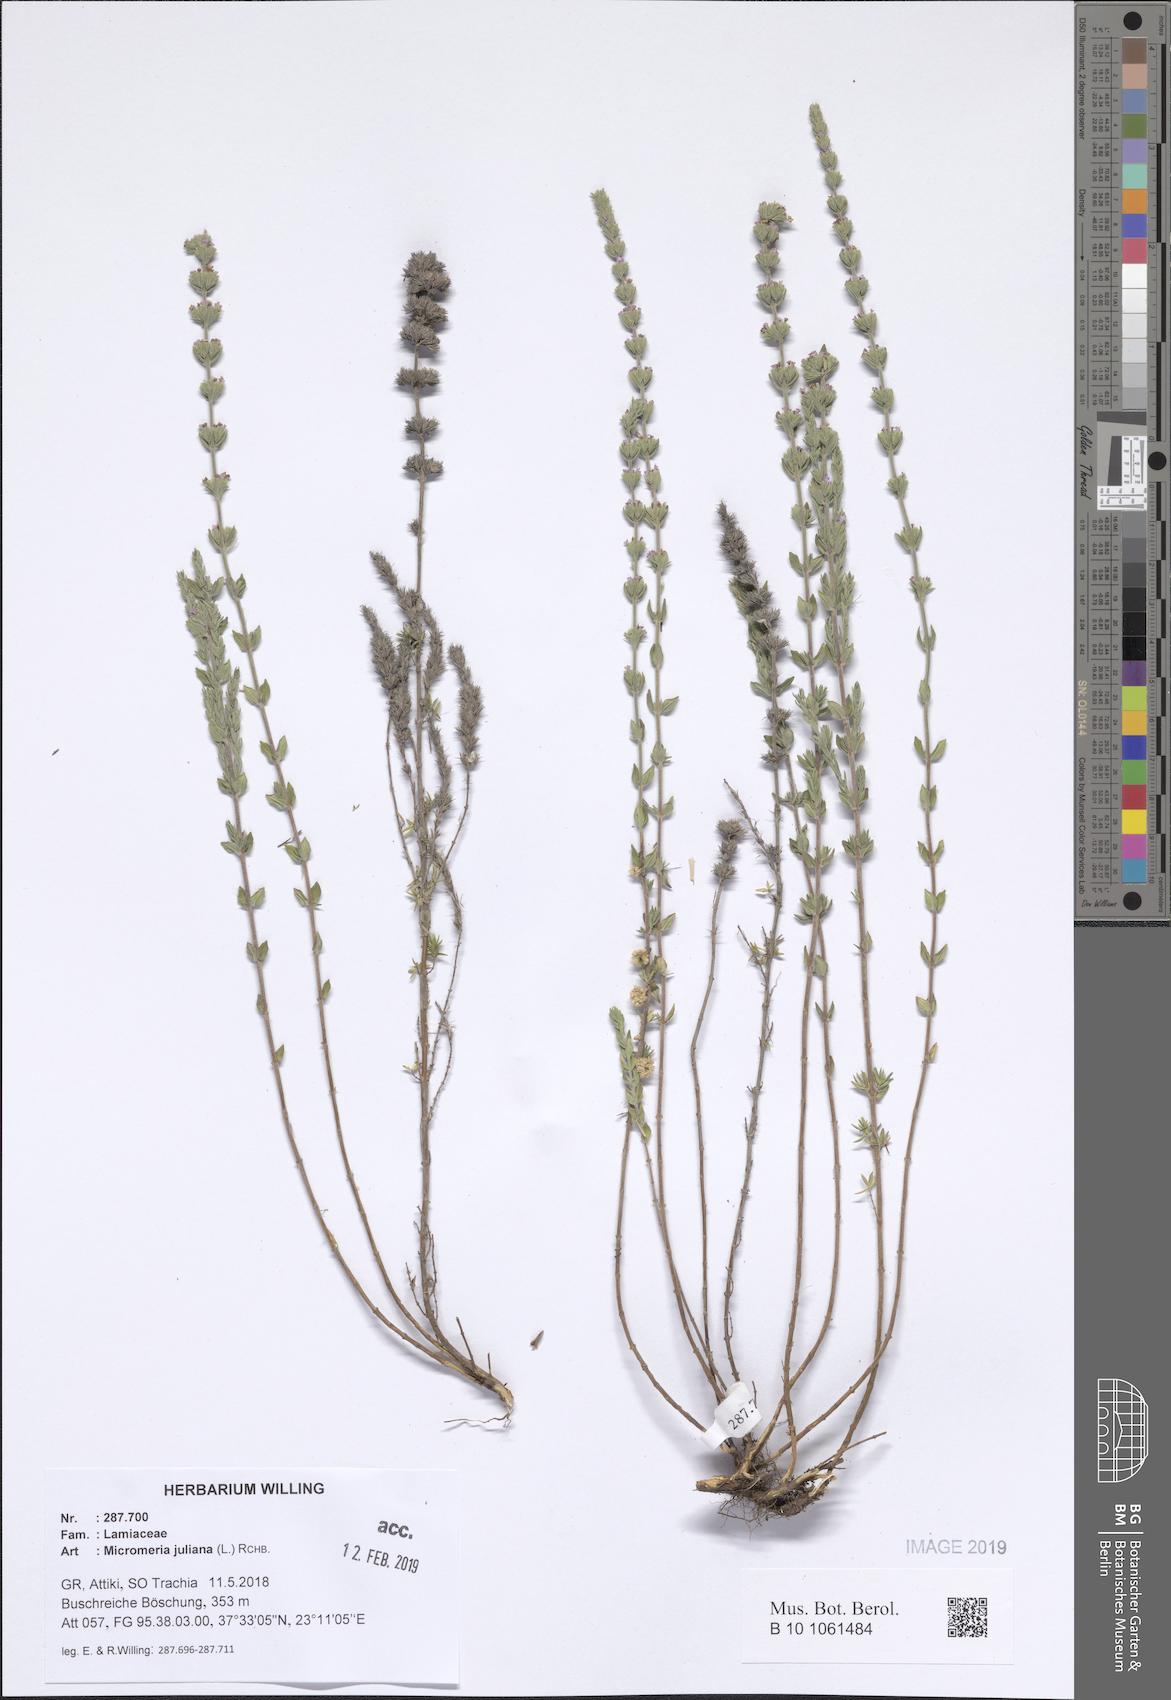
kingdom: Plantae
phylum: Tracheophyta
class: Magnoliopsida
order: Lamiales
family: Lamiaceae
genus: Micromeria
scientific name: Micromeria juliana
